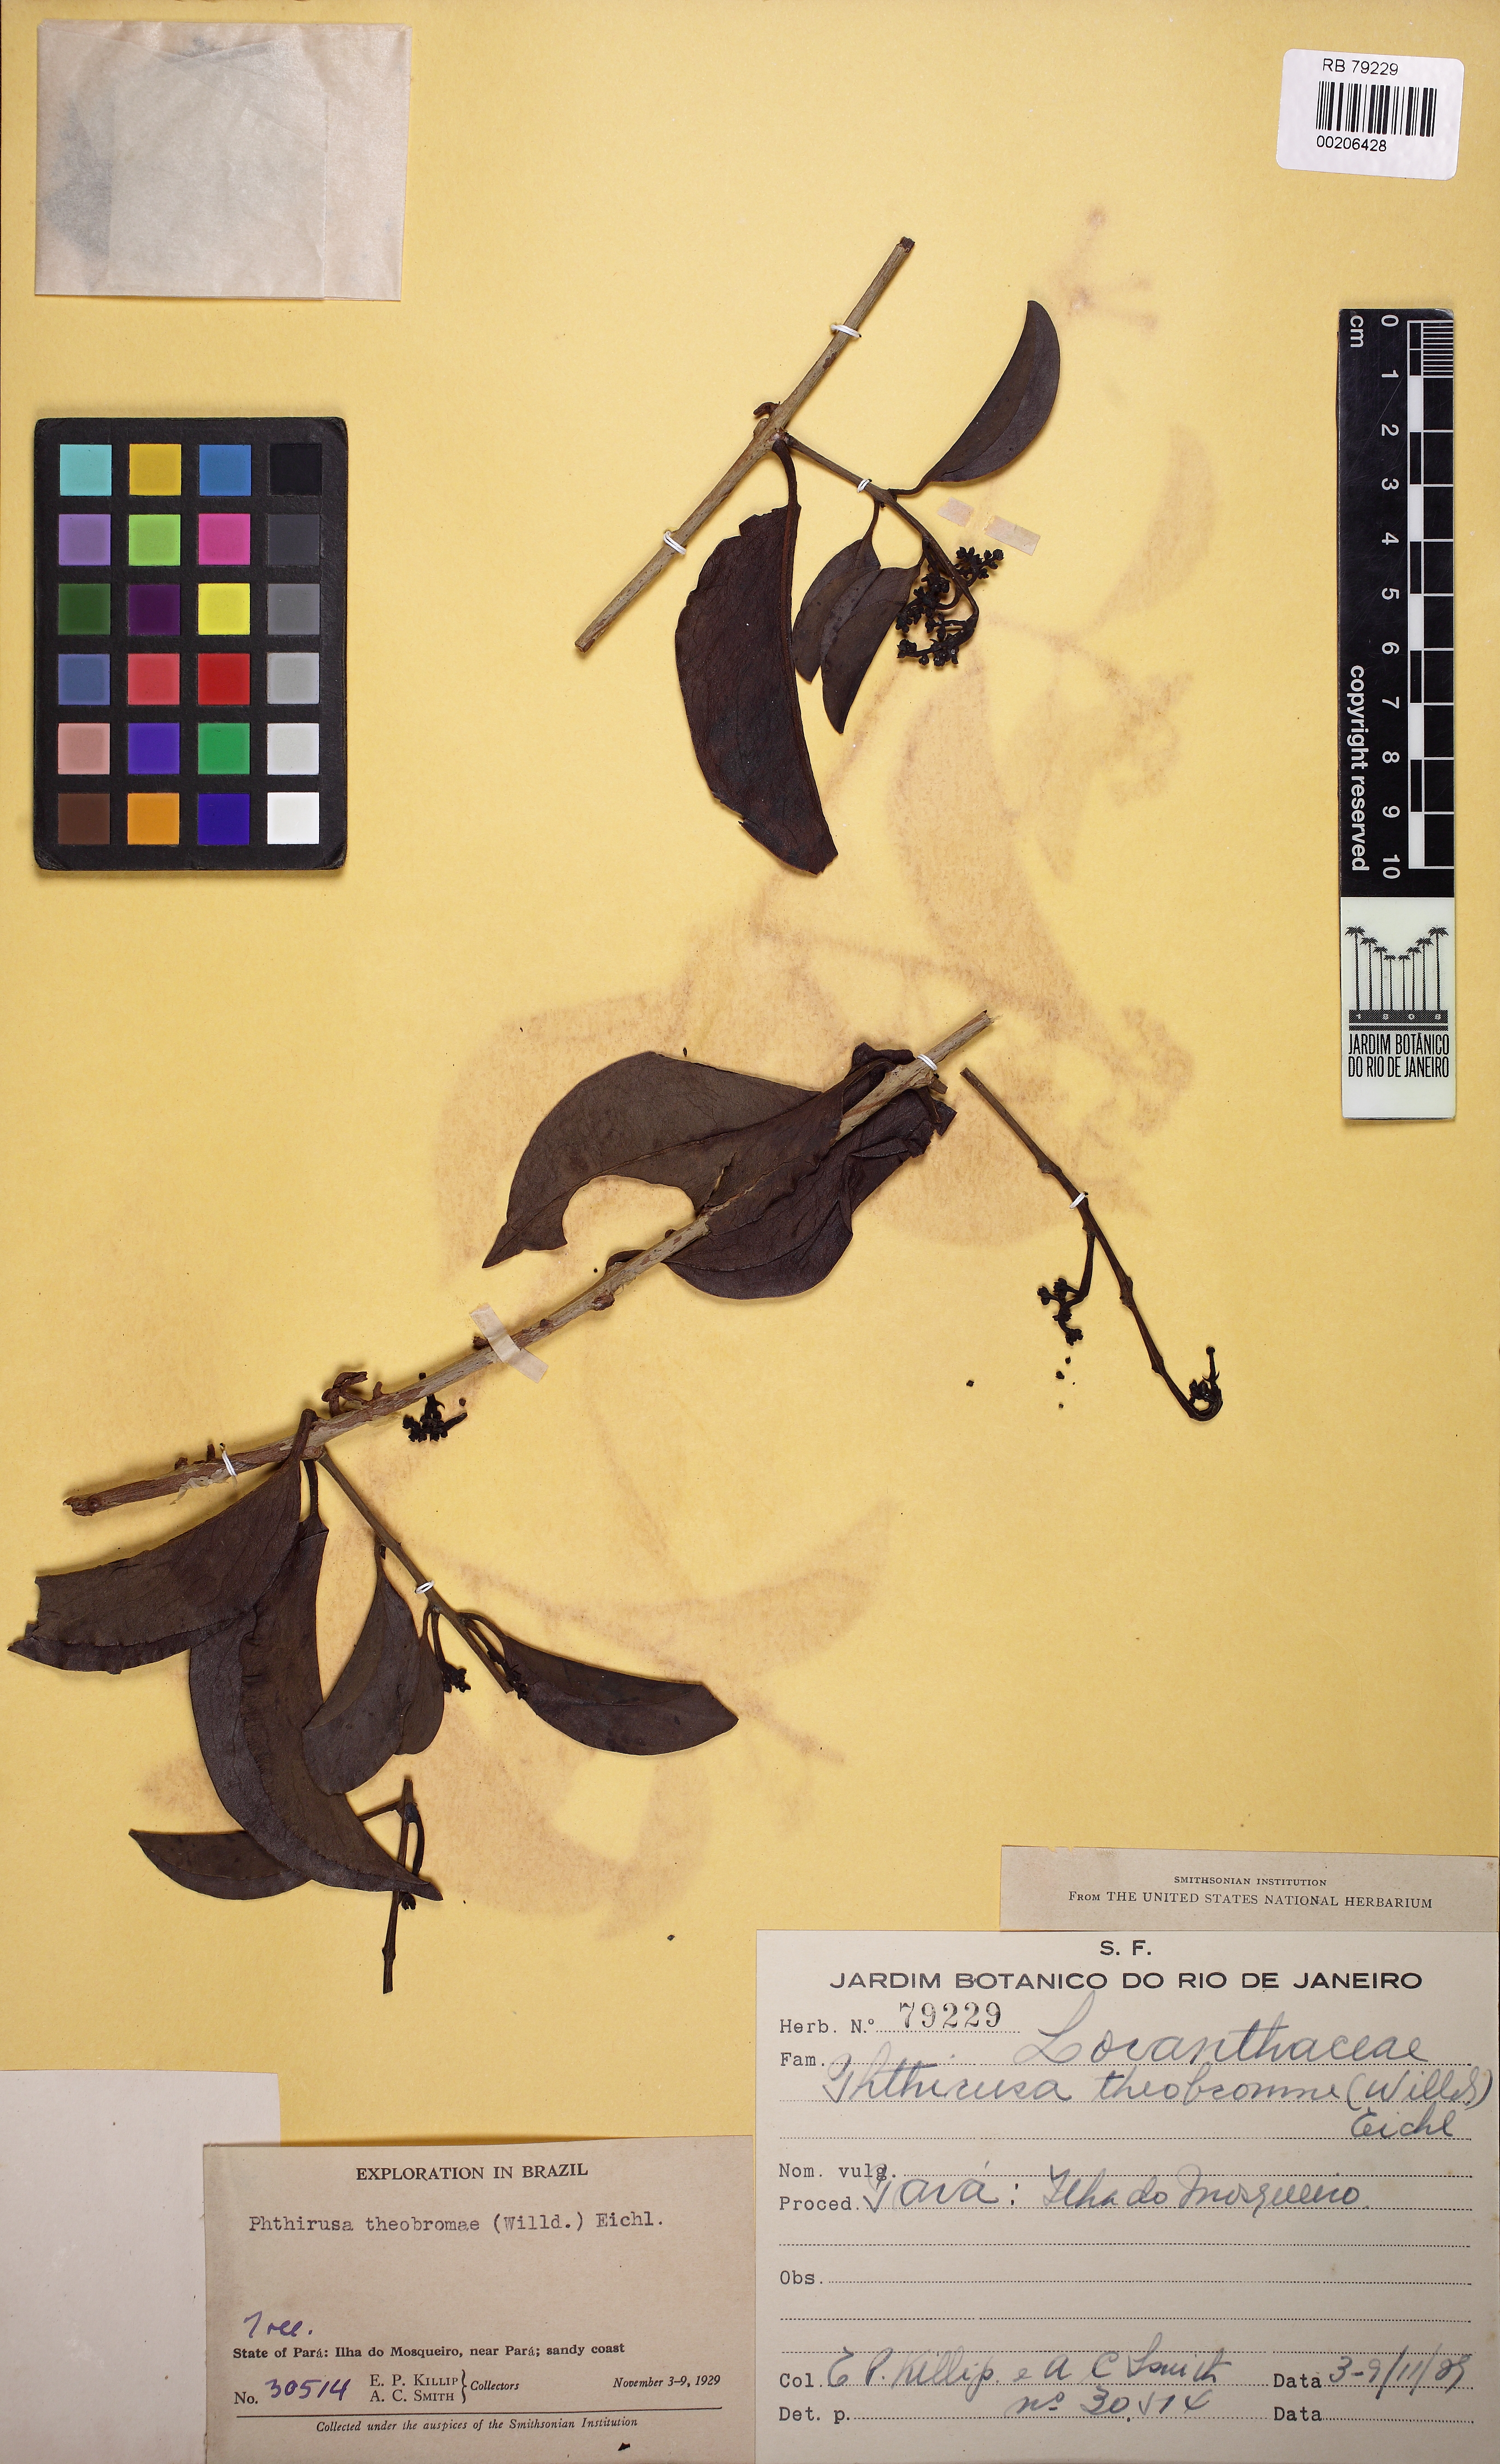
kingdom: Plantae
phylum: Tracheophyta
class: Magnoliopsida
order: Santalales
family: Loranthaceae
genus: Passovia
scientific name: Passovia pedunculata
